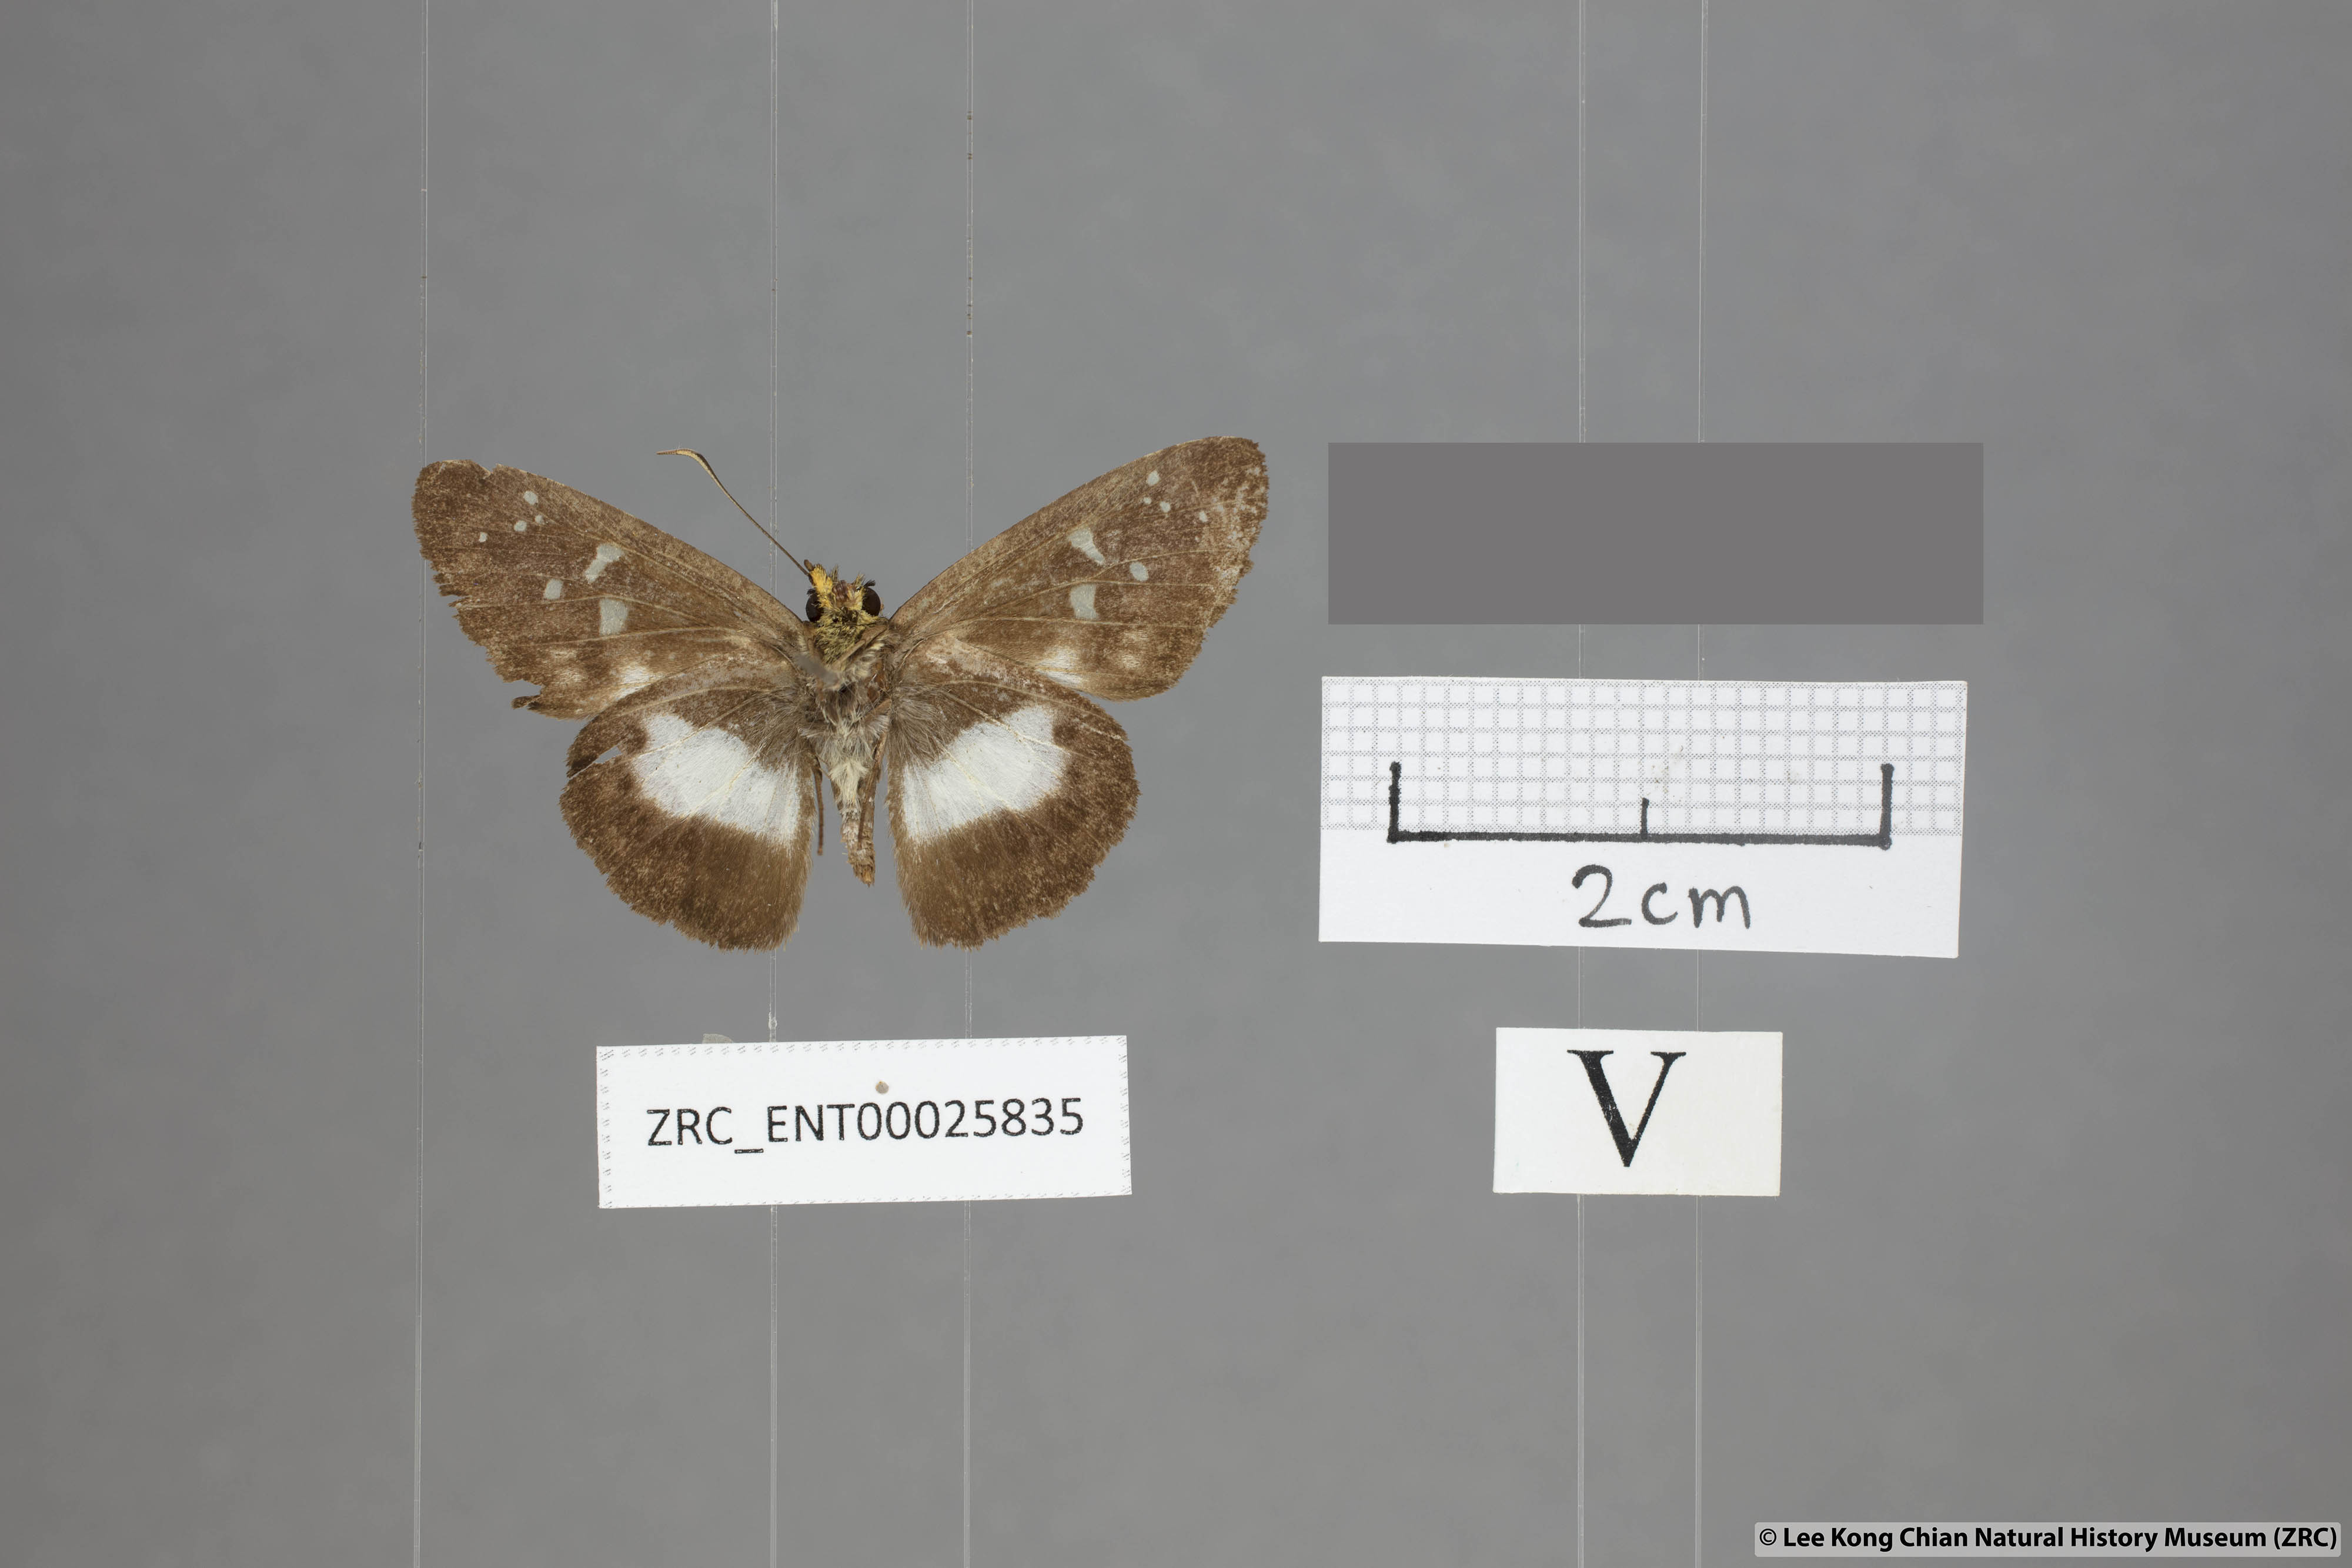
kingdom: Animalia
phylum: Arthropoda
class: Insecta
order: Lepidoptera
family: Hesperiidae
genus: Daimio
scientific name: Daimio
